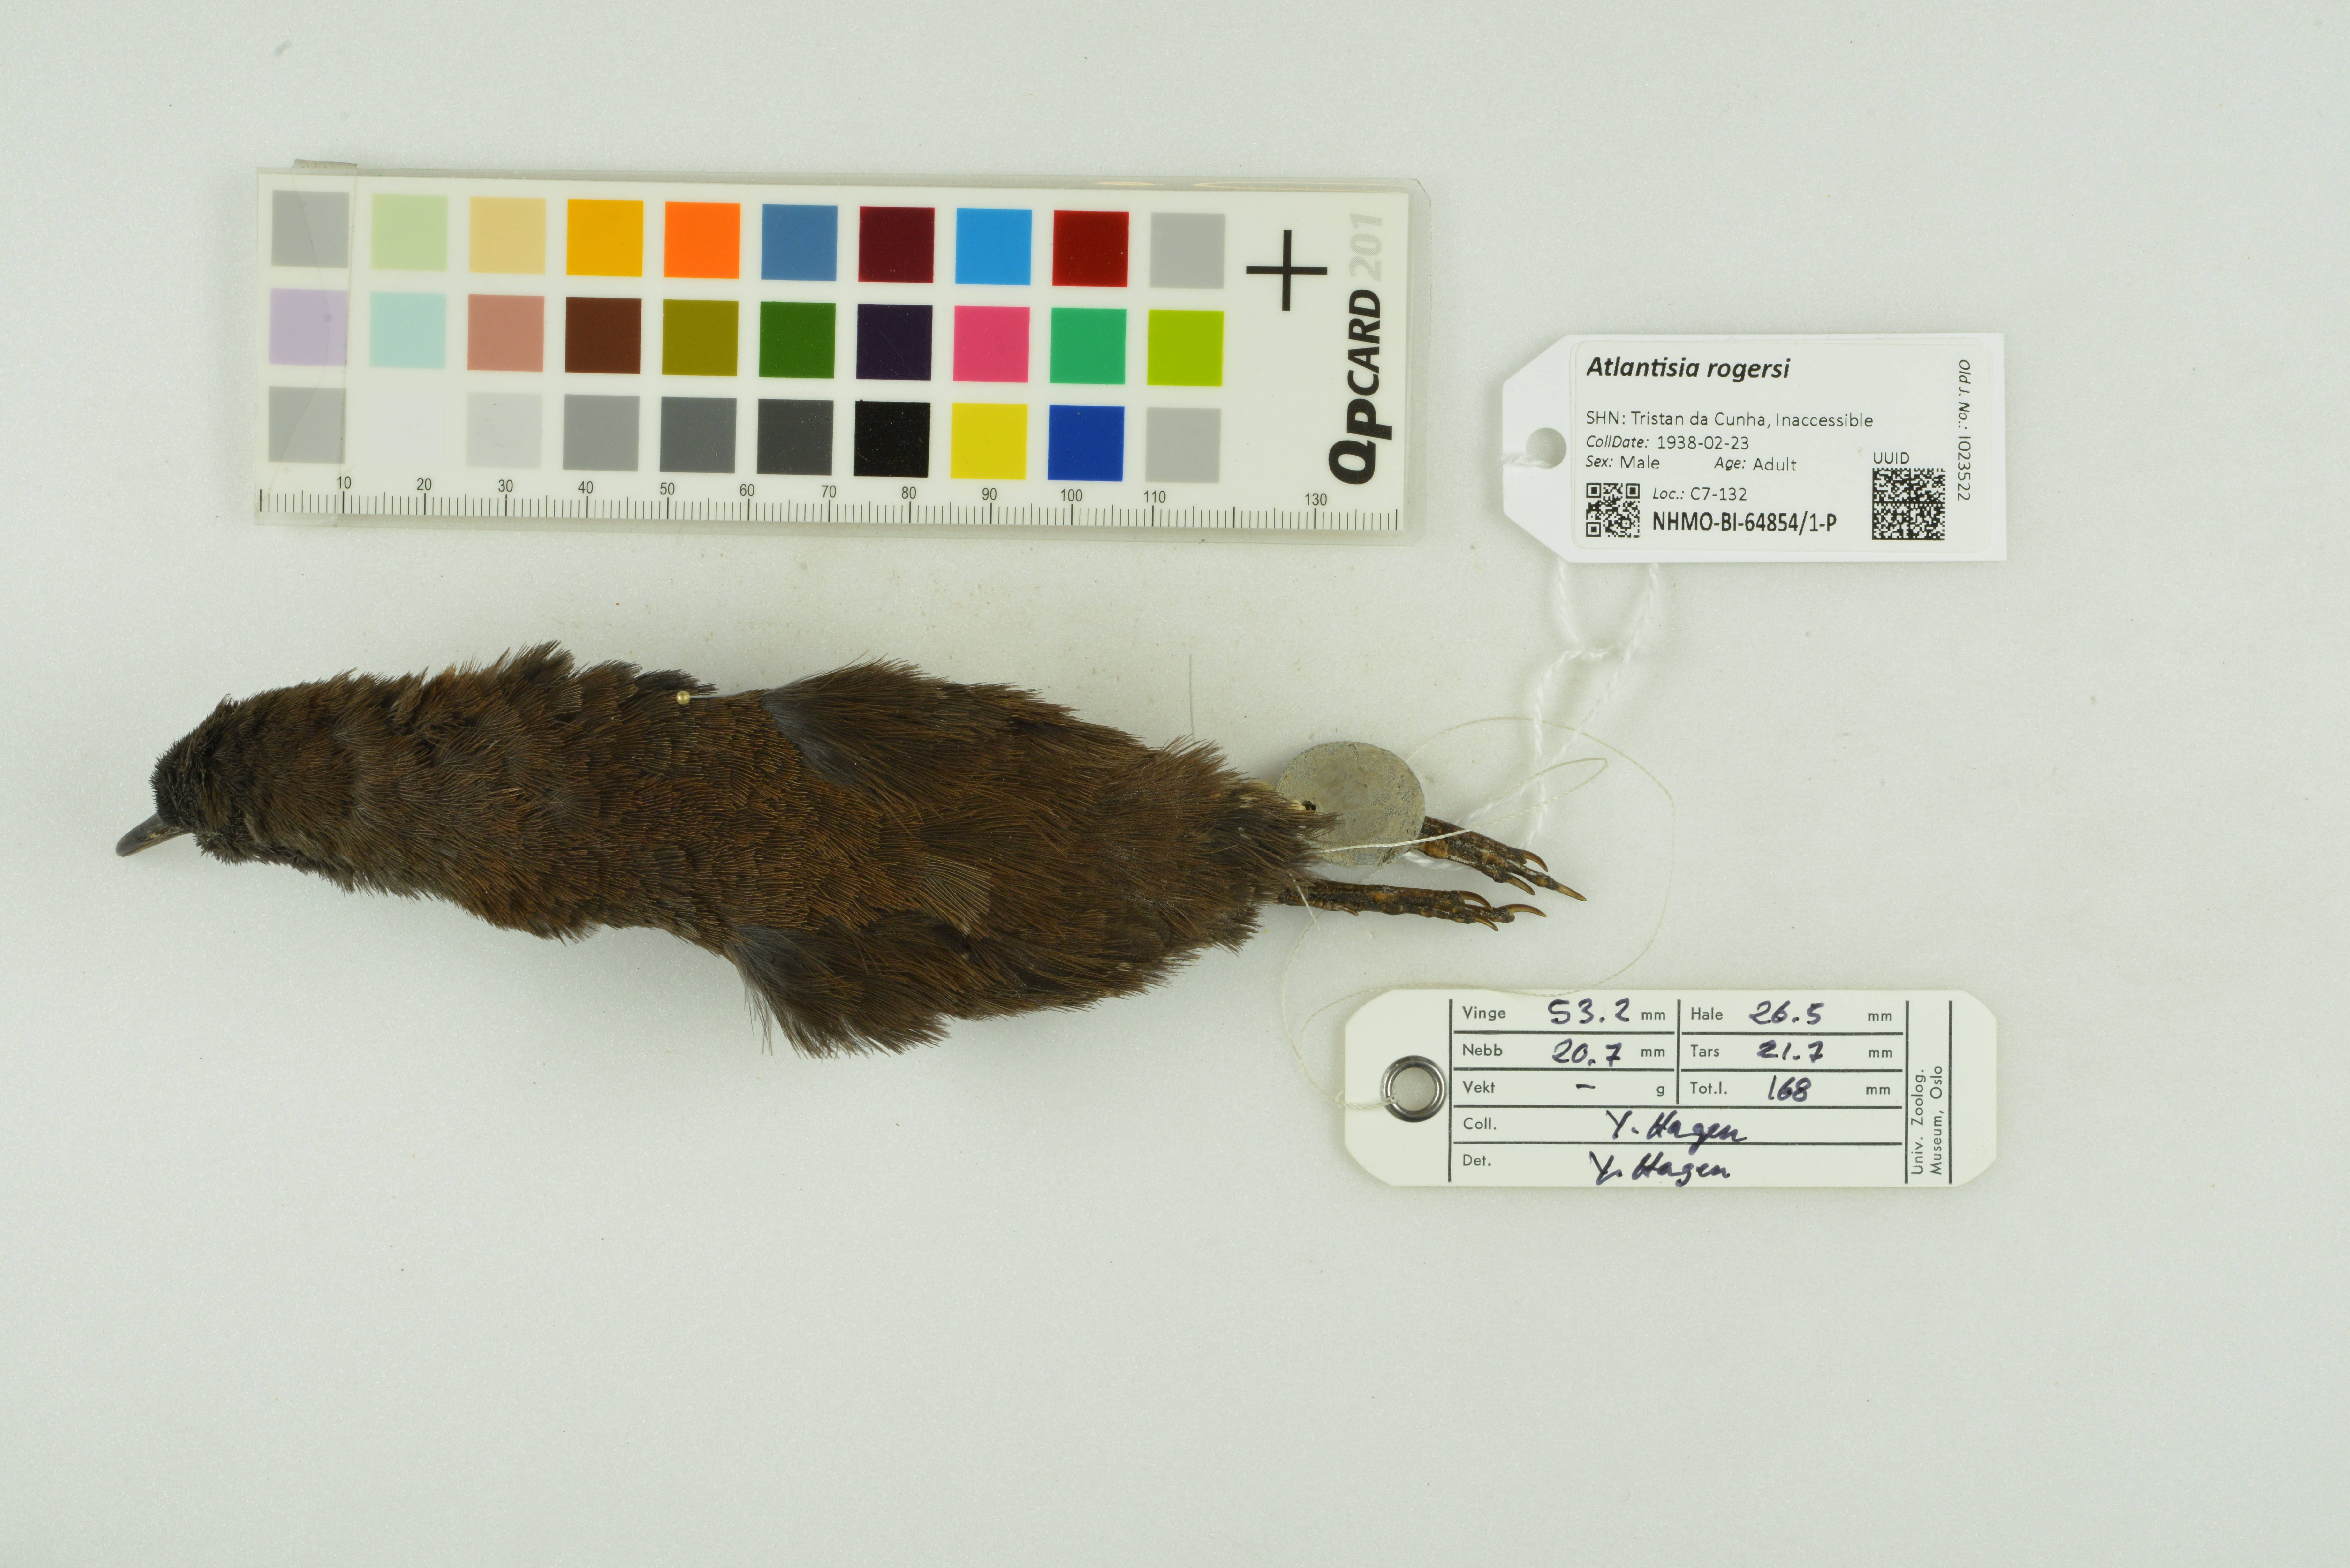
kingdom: Animalia
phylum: Chordata
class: Aves
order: Gruiformes
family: Rallidae
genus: Atlantisia
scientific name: Atlantisia rogersi
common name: Inaccessible island rail
